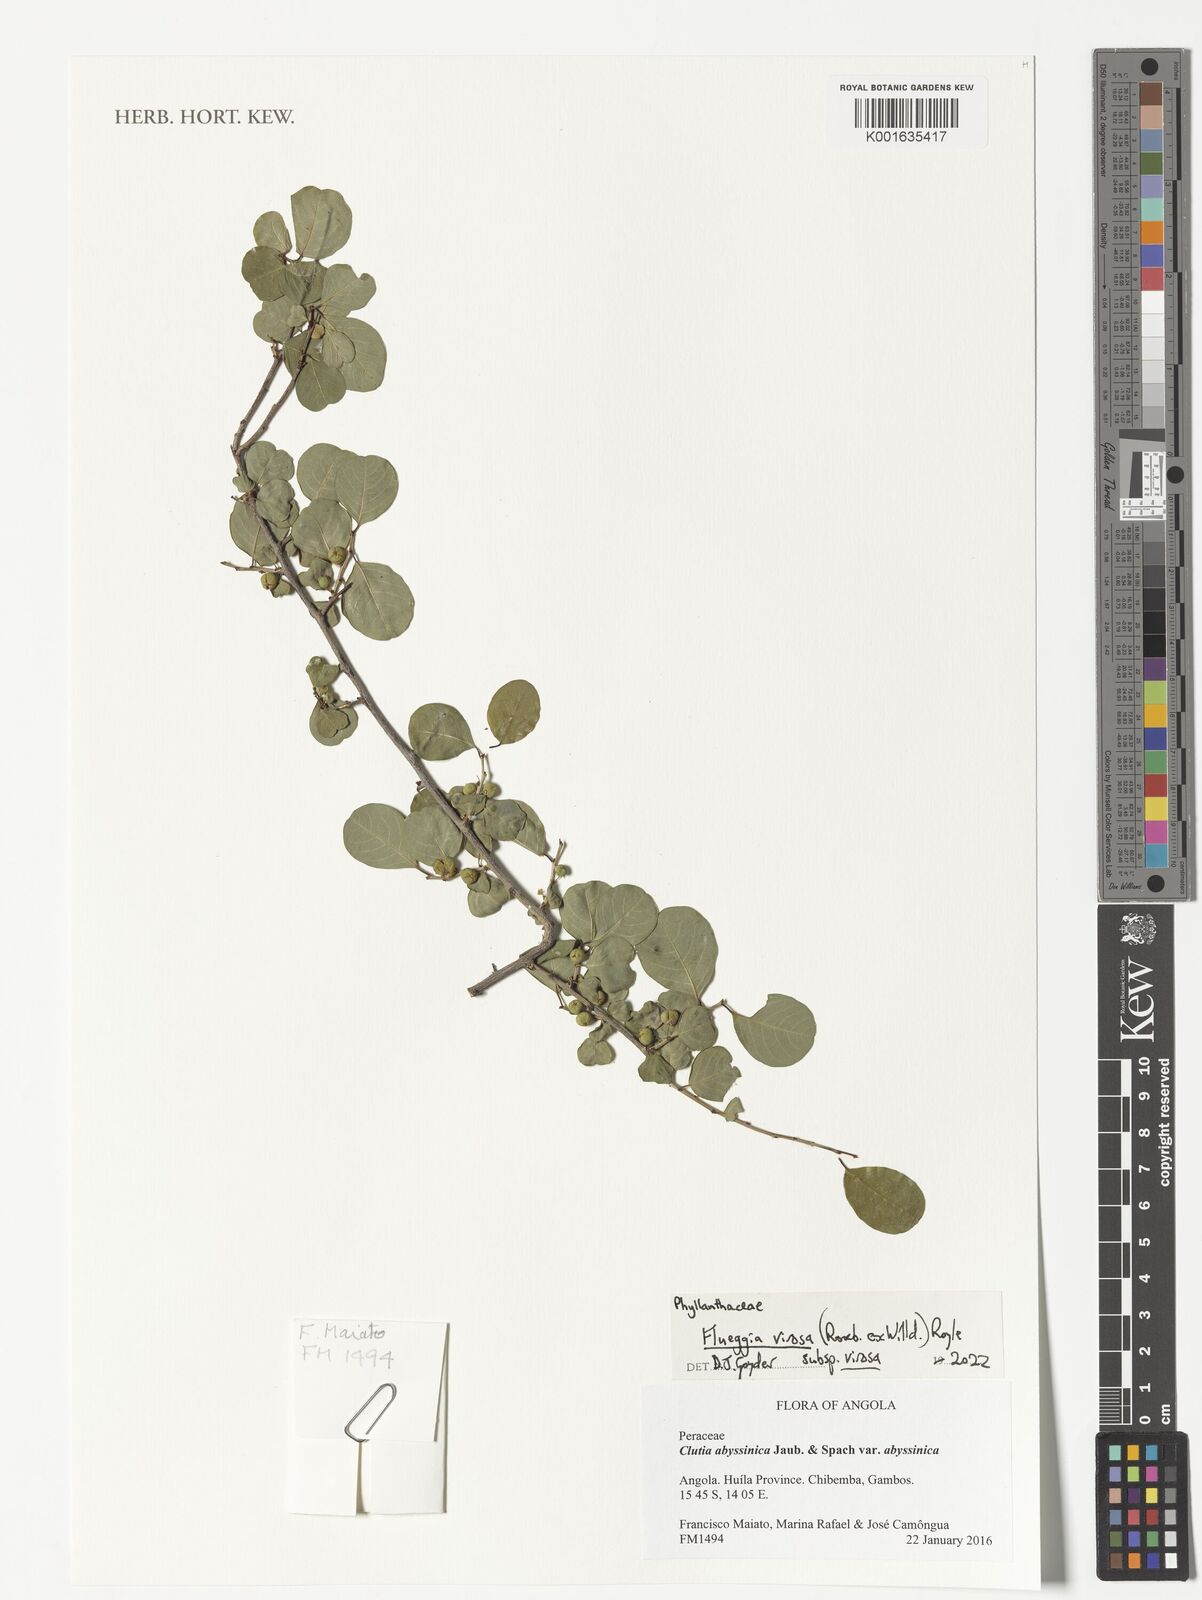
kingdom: Plantae
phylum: Tracheophyta
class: Magnoliopsida
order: Malpighiales
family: Phyllanthaceae
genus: Flueggea
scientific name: Flueggea virosa
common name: Common bushweed
